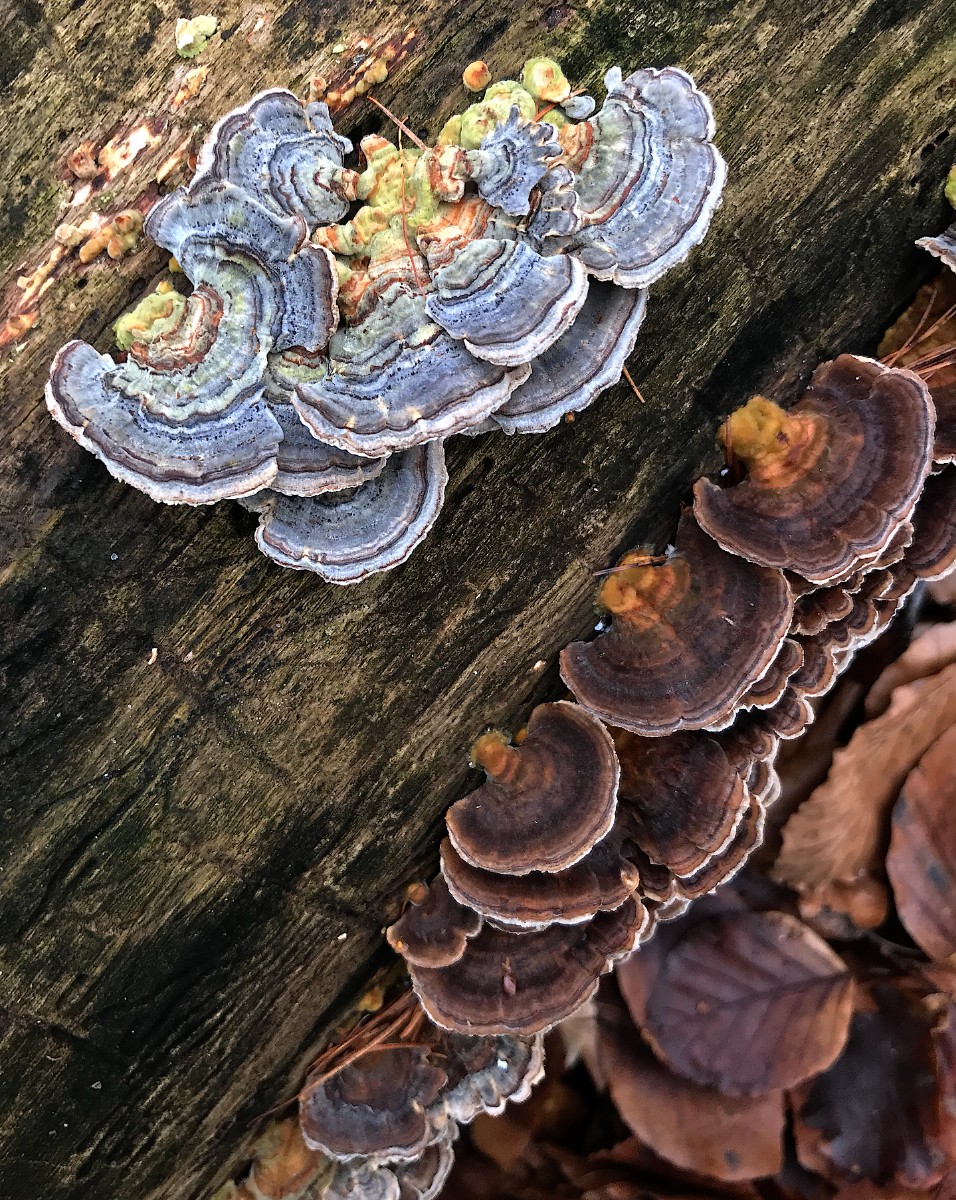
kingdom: Fungi
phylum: Basidiomycota
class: Agaricomycetes
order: Polyporales
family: Polyporaceae
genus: Trametes
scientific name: Trametes versicolor
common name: broget læderporesvamp
